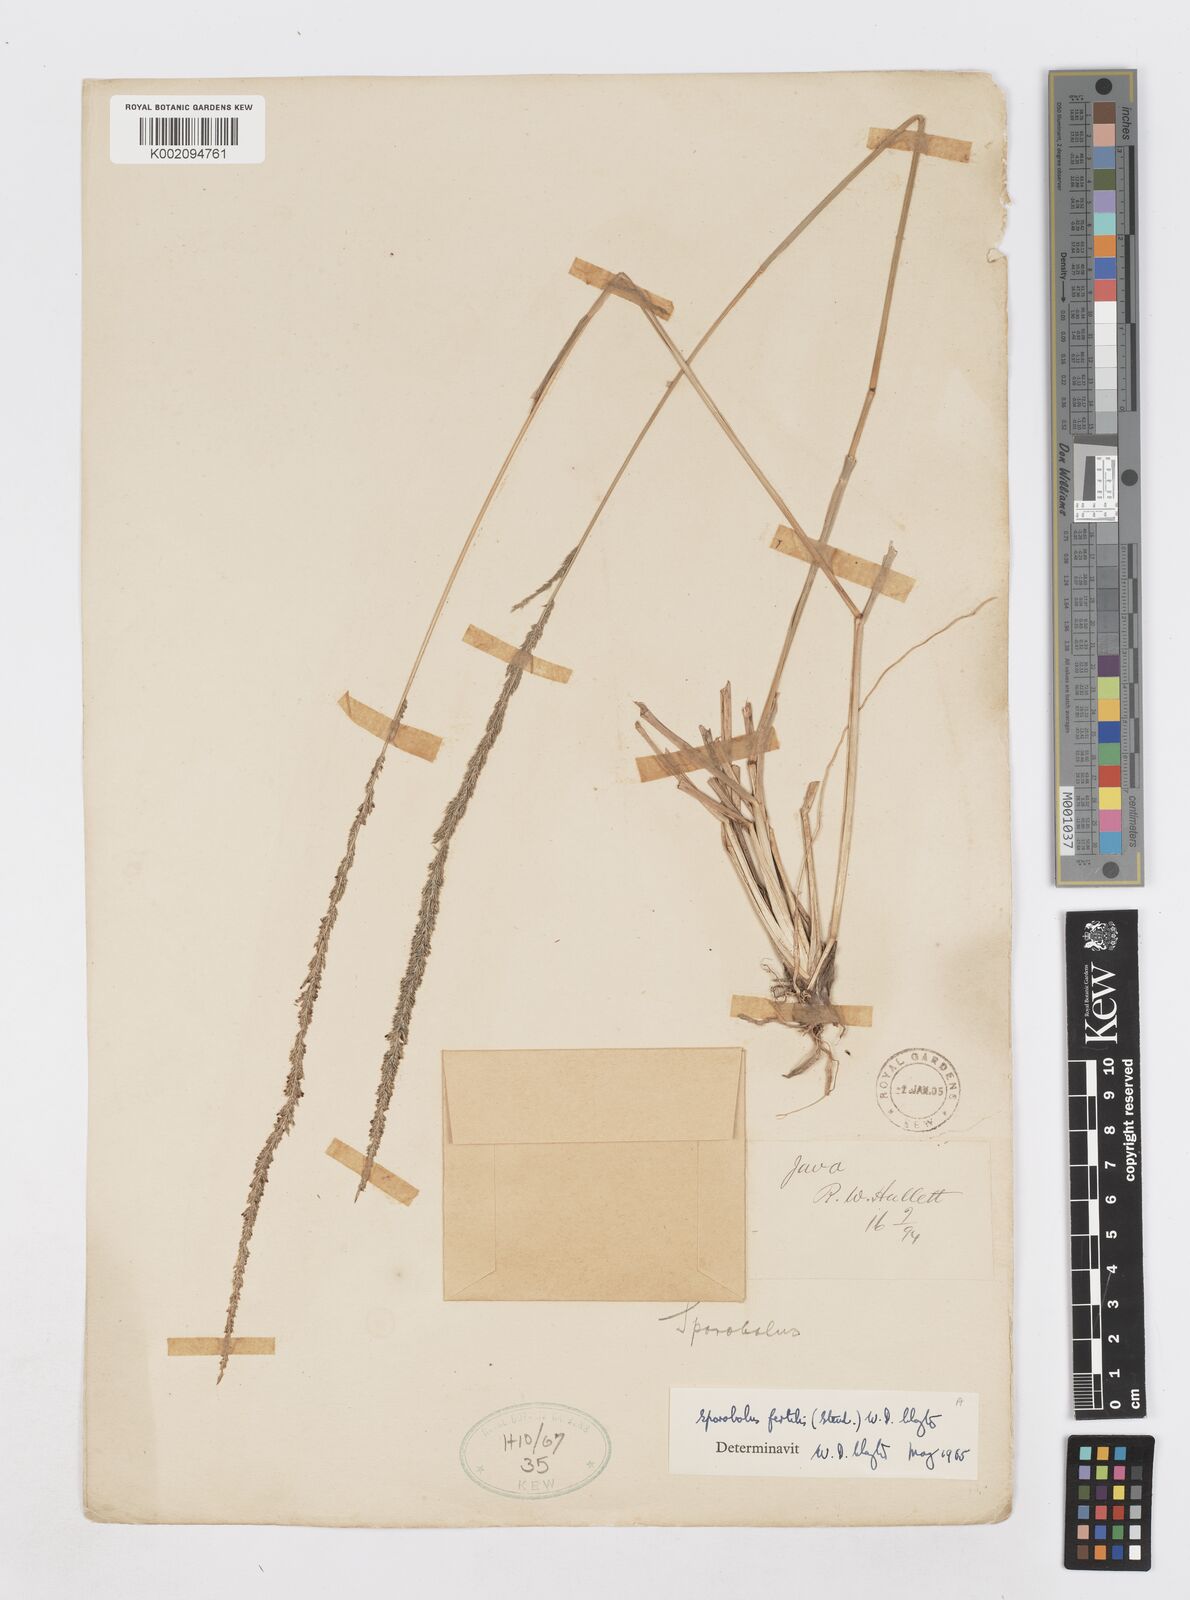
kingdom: Plantae
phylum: Tracheophyta
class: Liliopsida
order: Poales
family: Poaceae
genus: Sporobolus
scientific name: Sporobolus fertilis
